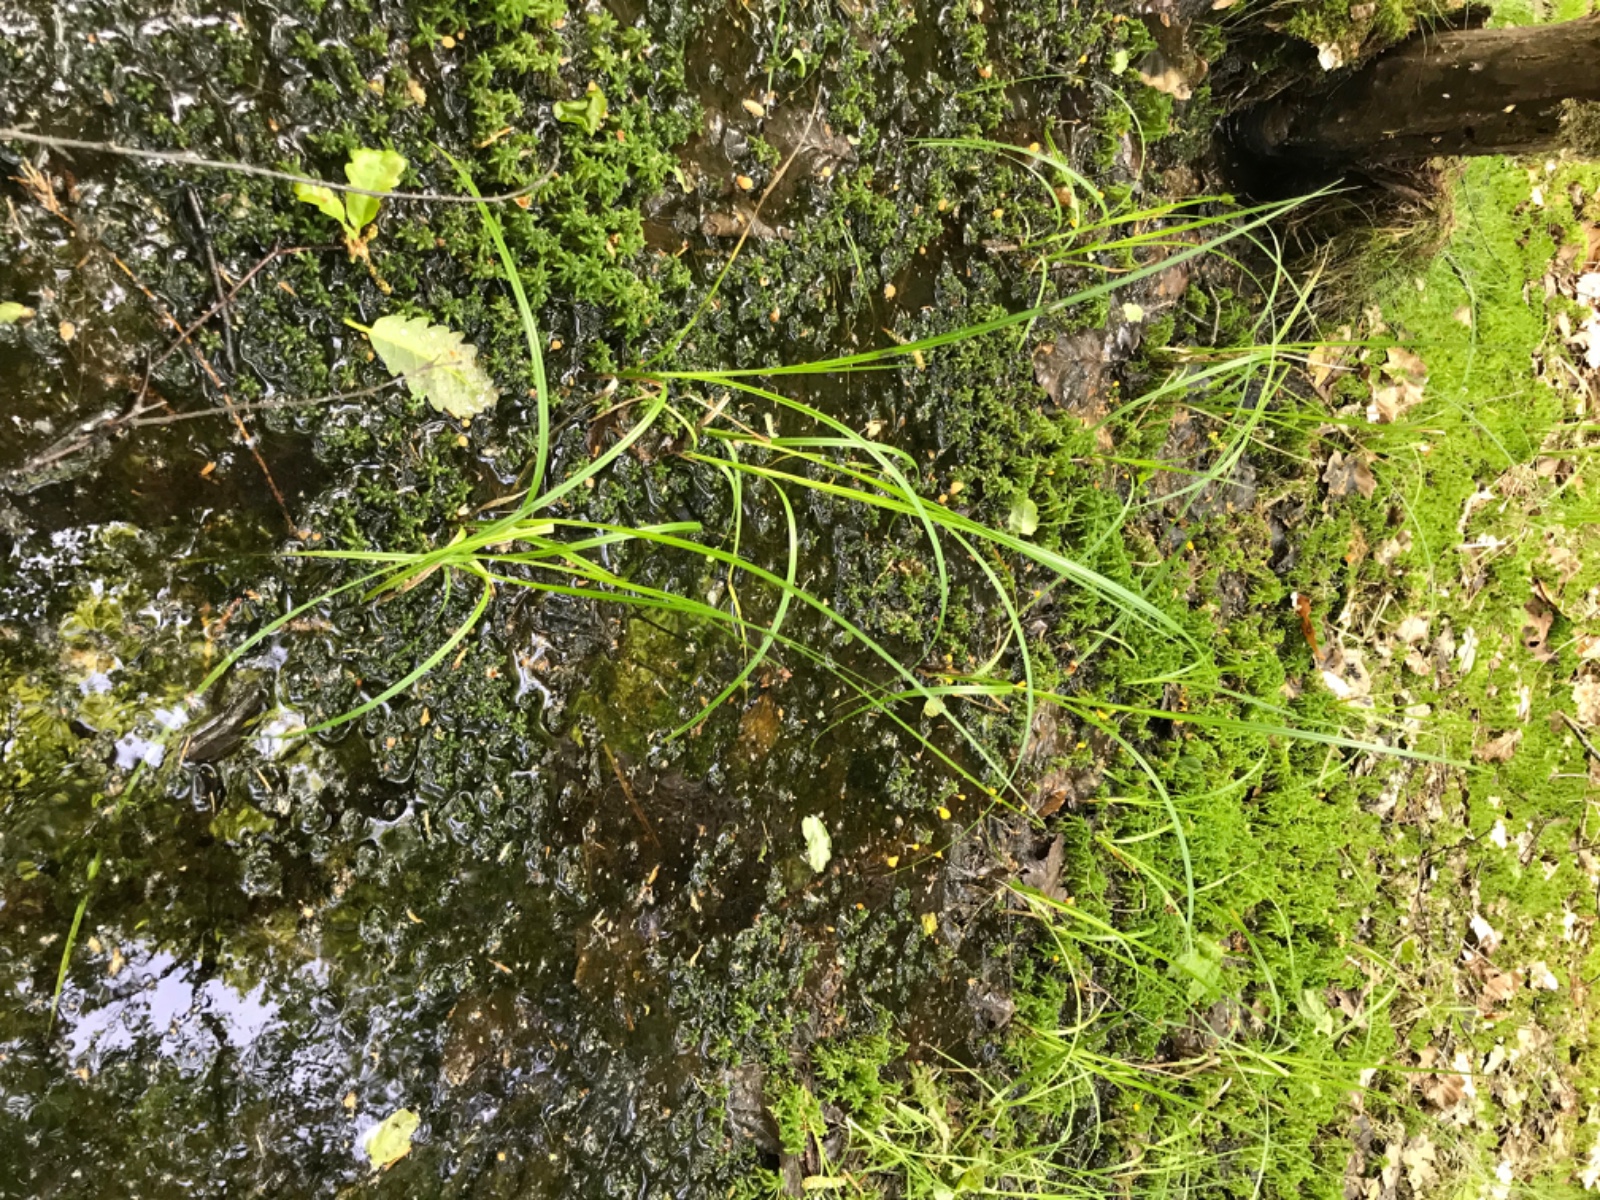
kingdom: Fungi
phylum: Ascomycota
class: Leotiomycetes
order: Helotiales
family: Cenangiaceae
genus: Mitrula
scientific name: Mitrula paludosa
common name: gul nøkketunge
